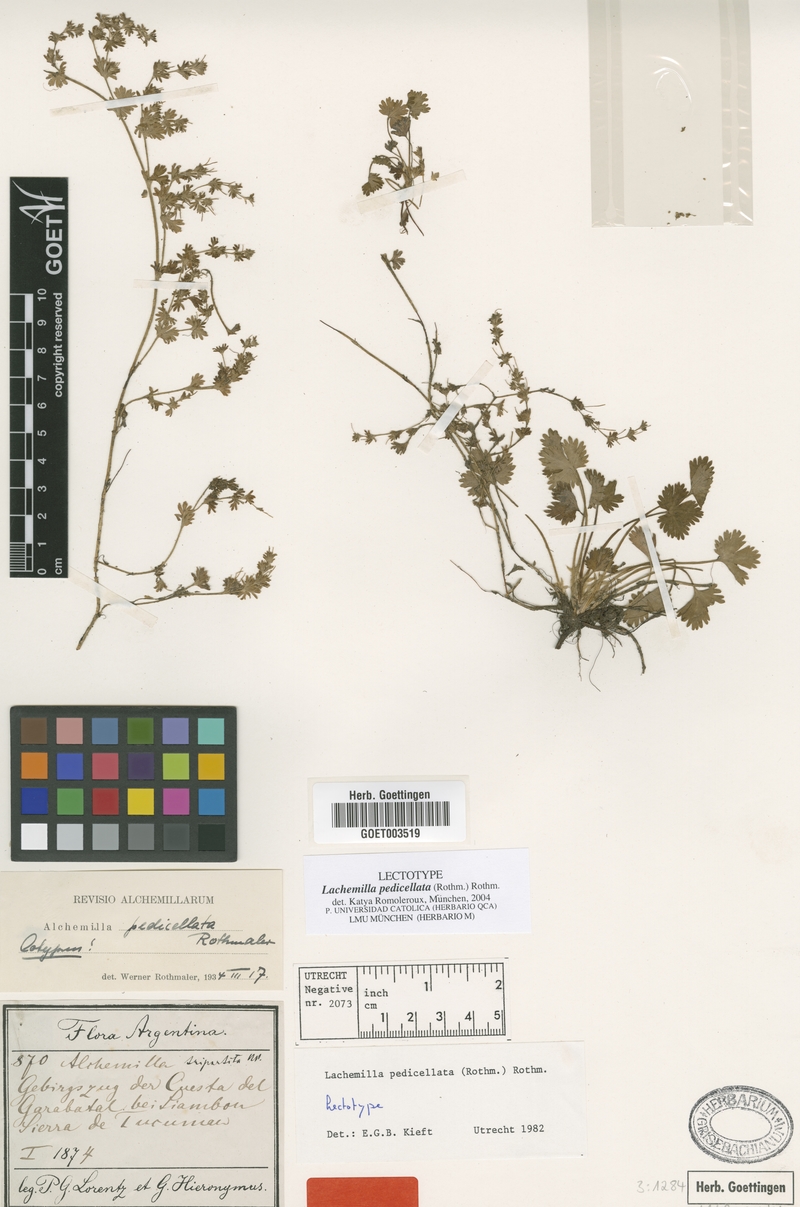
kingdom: Plantae
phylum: Tracheophyta
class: Magnoliopsida
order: Rosales
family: Rosaceae
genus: Lachemilla
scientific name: Lachemilla pedicellata
